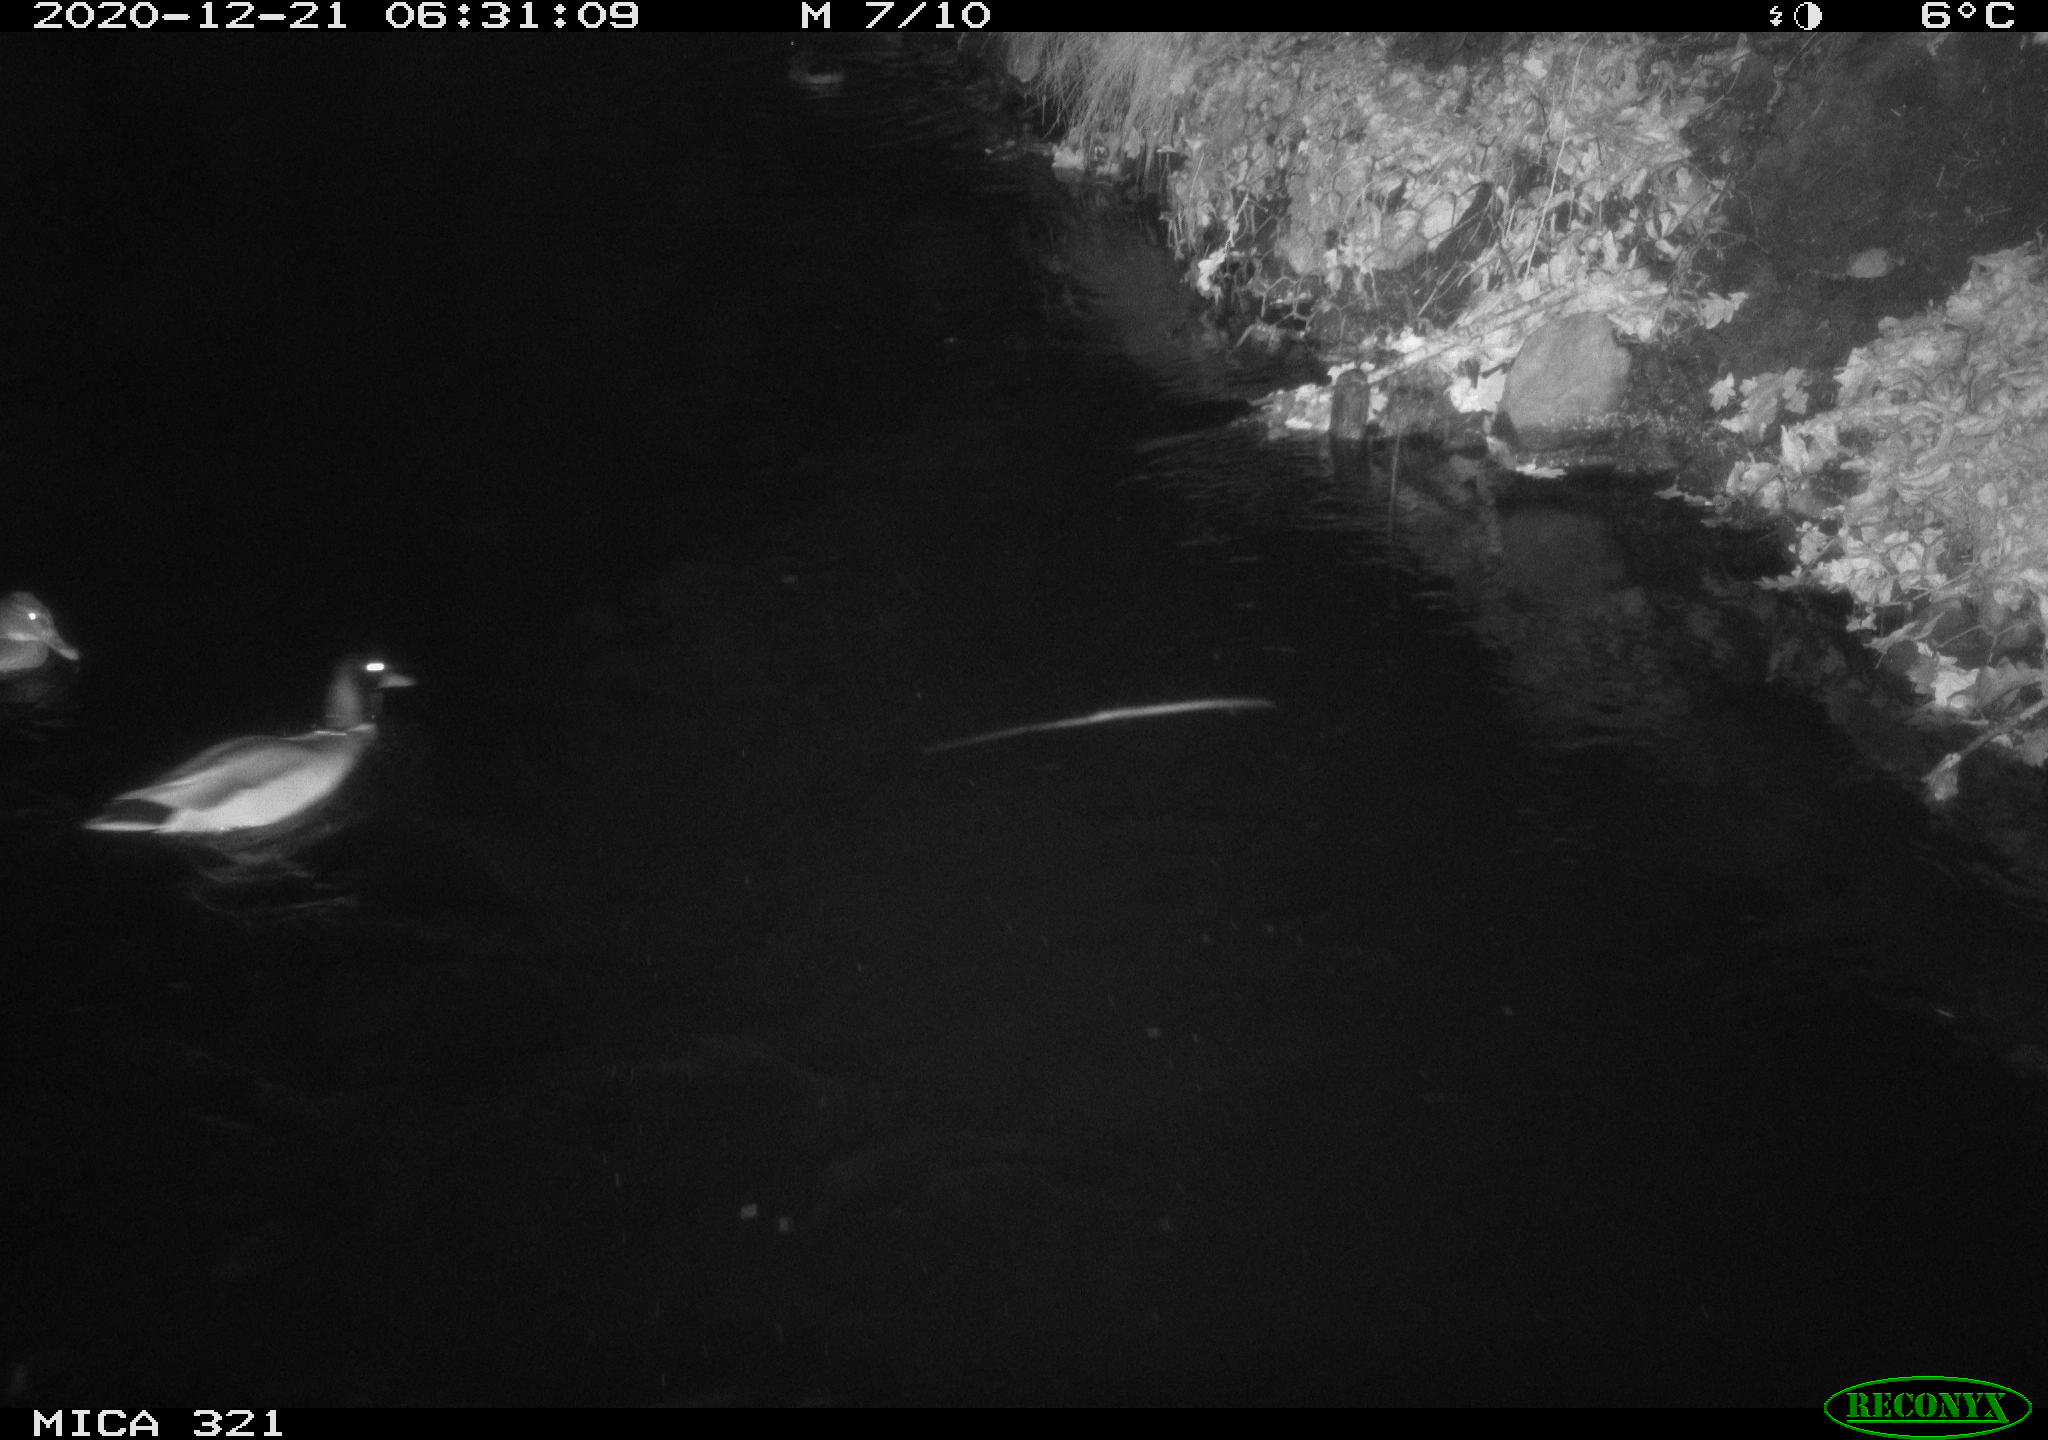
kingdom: Animalia
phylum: Chordata
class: Aves
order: Anseriformes
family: Anatidae
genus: Anas
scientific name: Anas platyrhynchos
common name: Mallard
